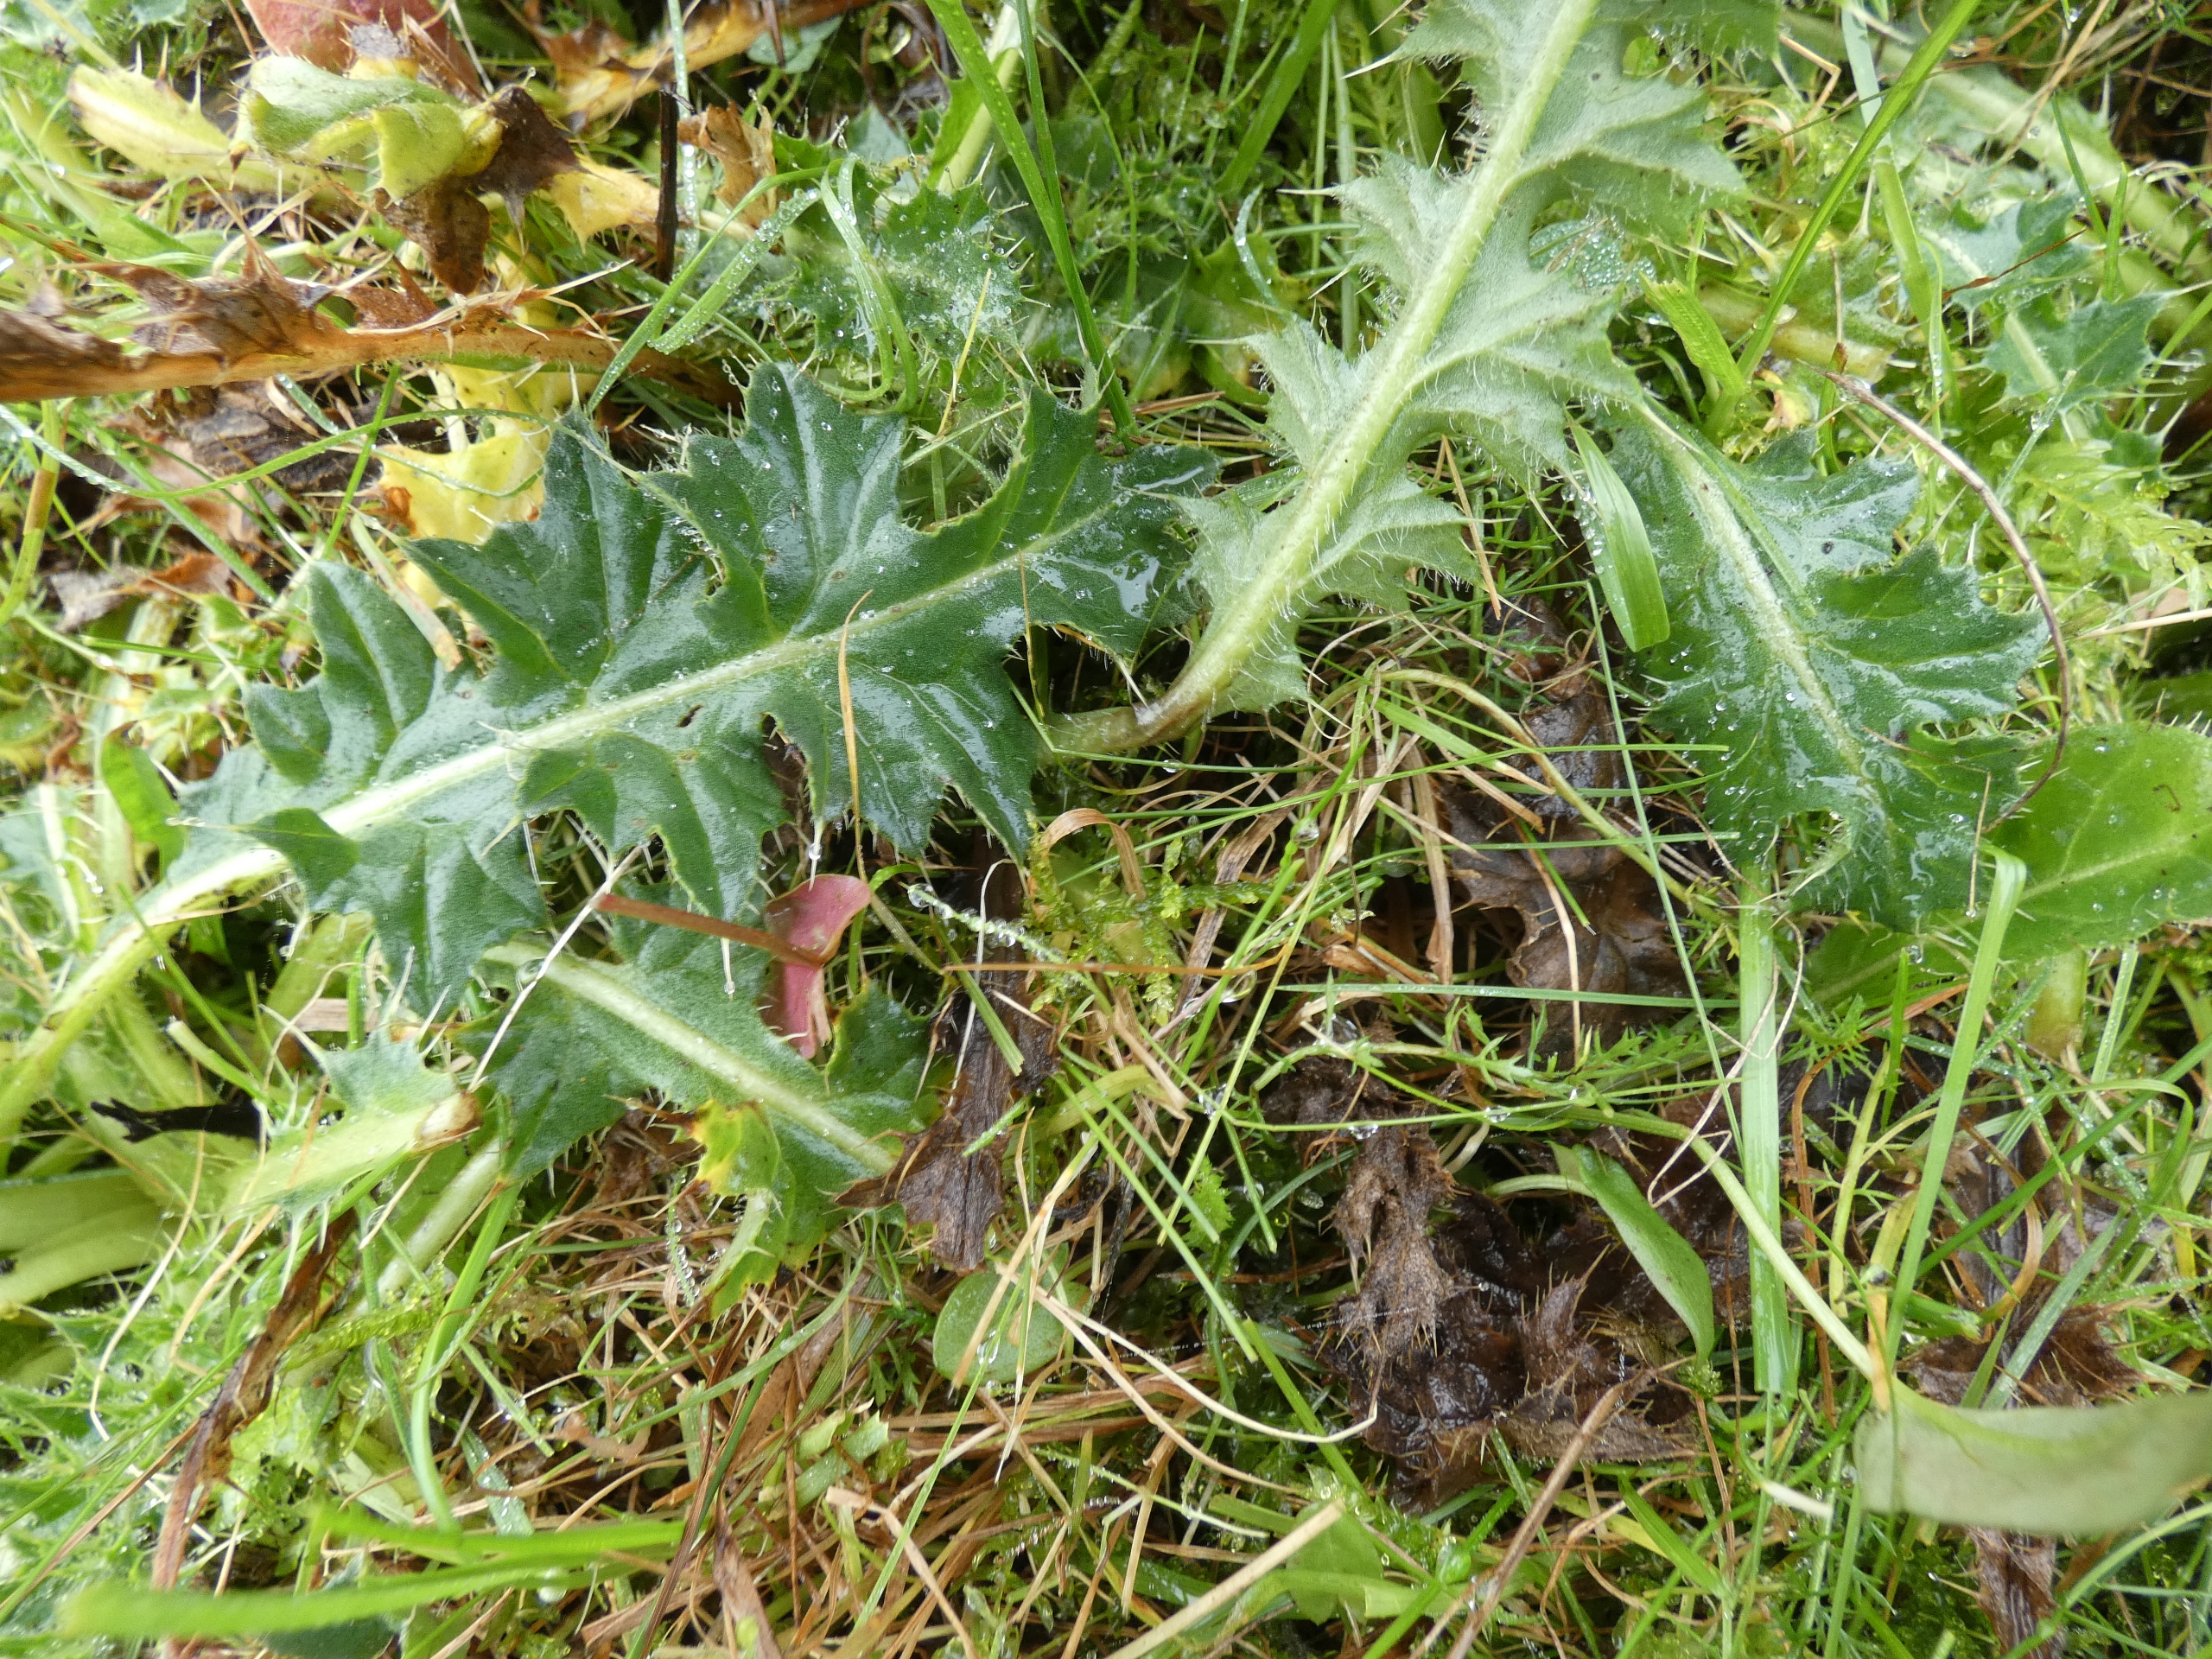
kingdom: Plantae
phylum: Tracheophyta
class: Magnoliopsida
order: Asterales
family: Asteraceae
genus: Cirsium
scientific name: Cirsium acaule
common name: Lav tidsel
